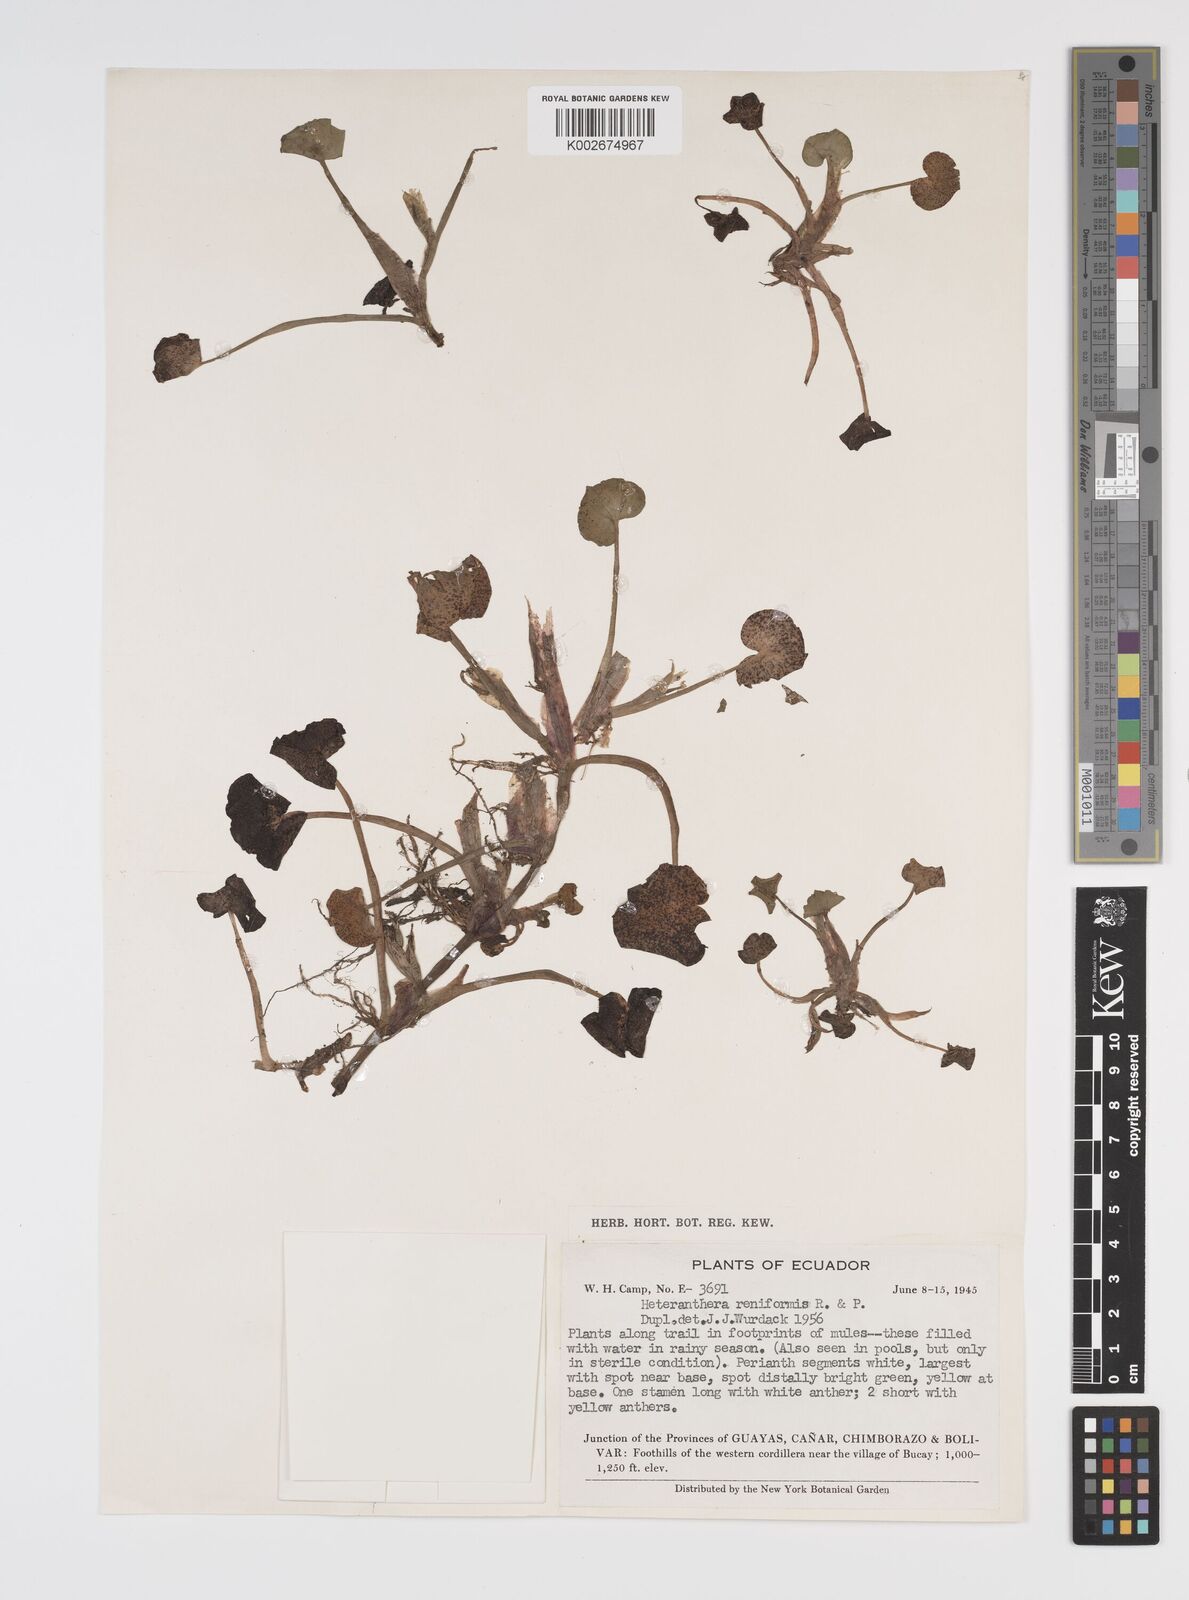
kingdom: Plantae
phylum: Tracheophyta
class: Liliopsida
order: Commelinales
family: Pontederiaceae
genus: Heteranthera
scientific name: Heteranthera reniformis
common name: Kidneyleaf mudplantain
